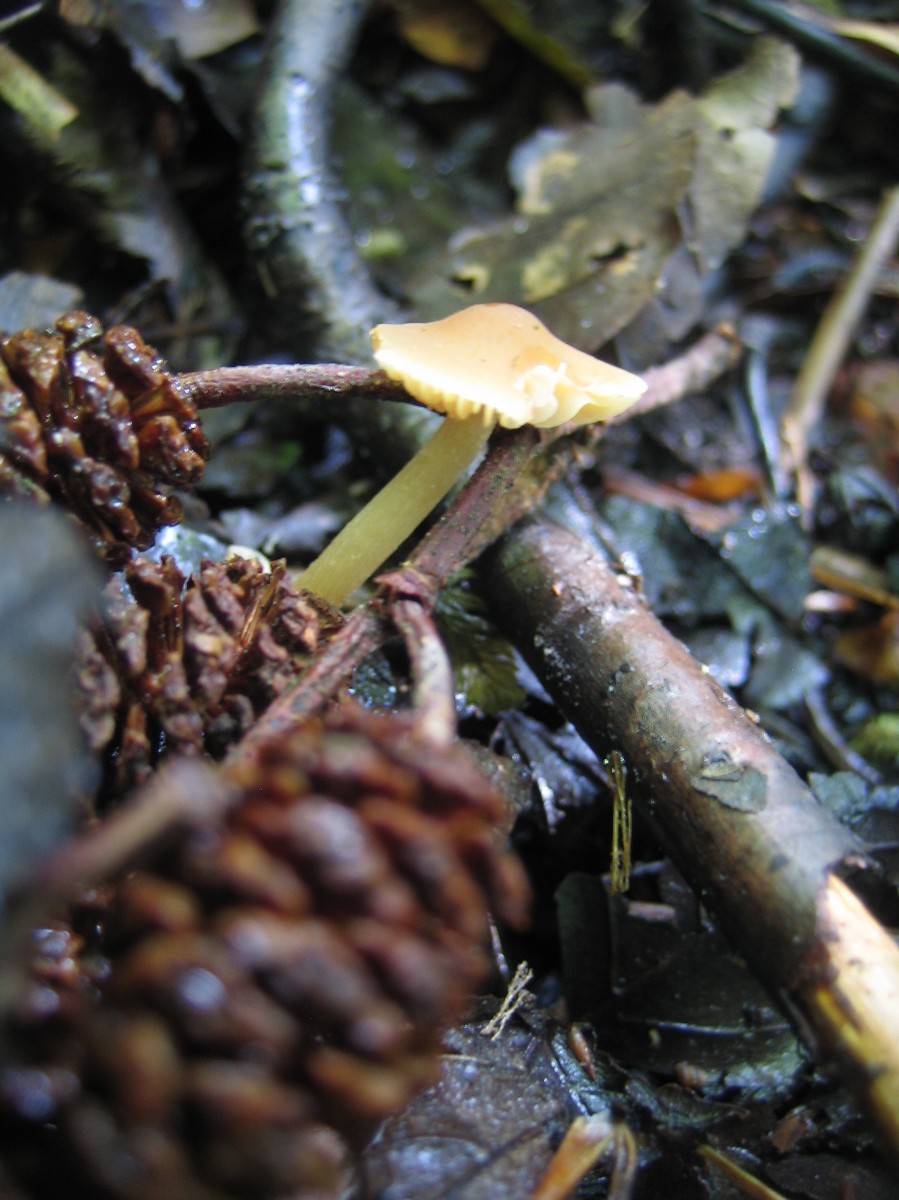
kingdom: Fungi
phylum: Basidiomycota
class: Agaricomycetes
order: Agaricales
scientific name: Agaricales
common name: champignonordenen
